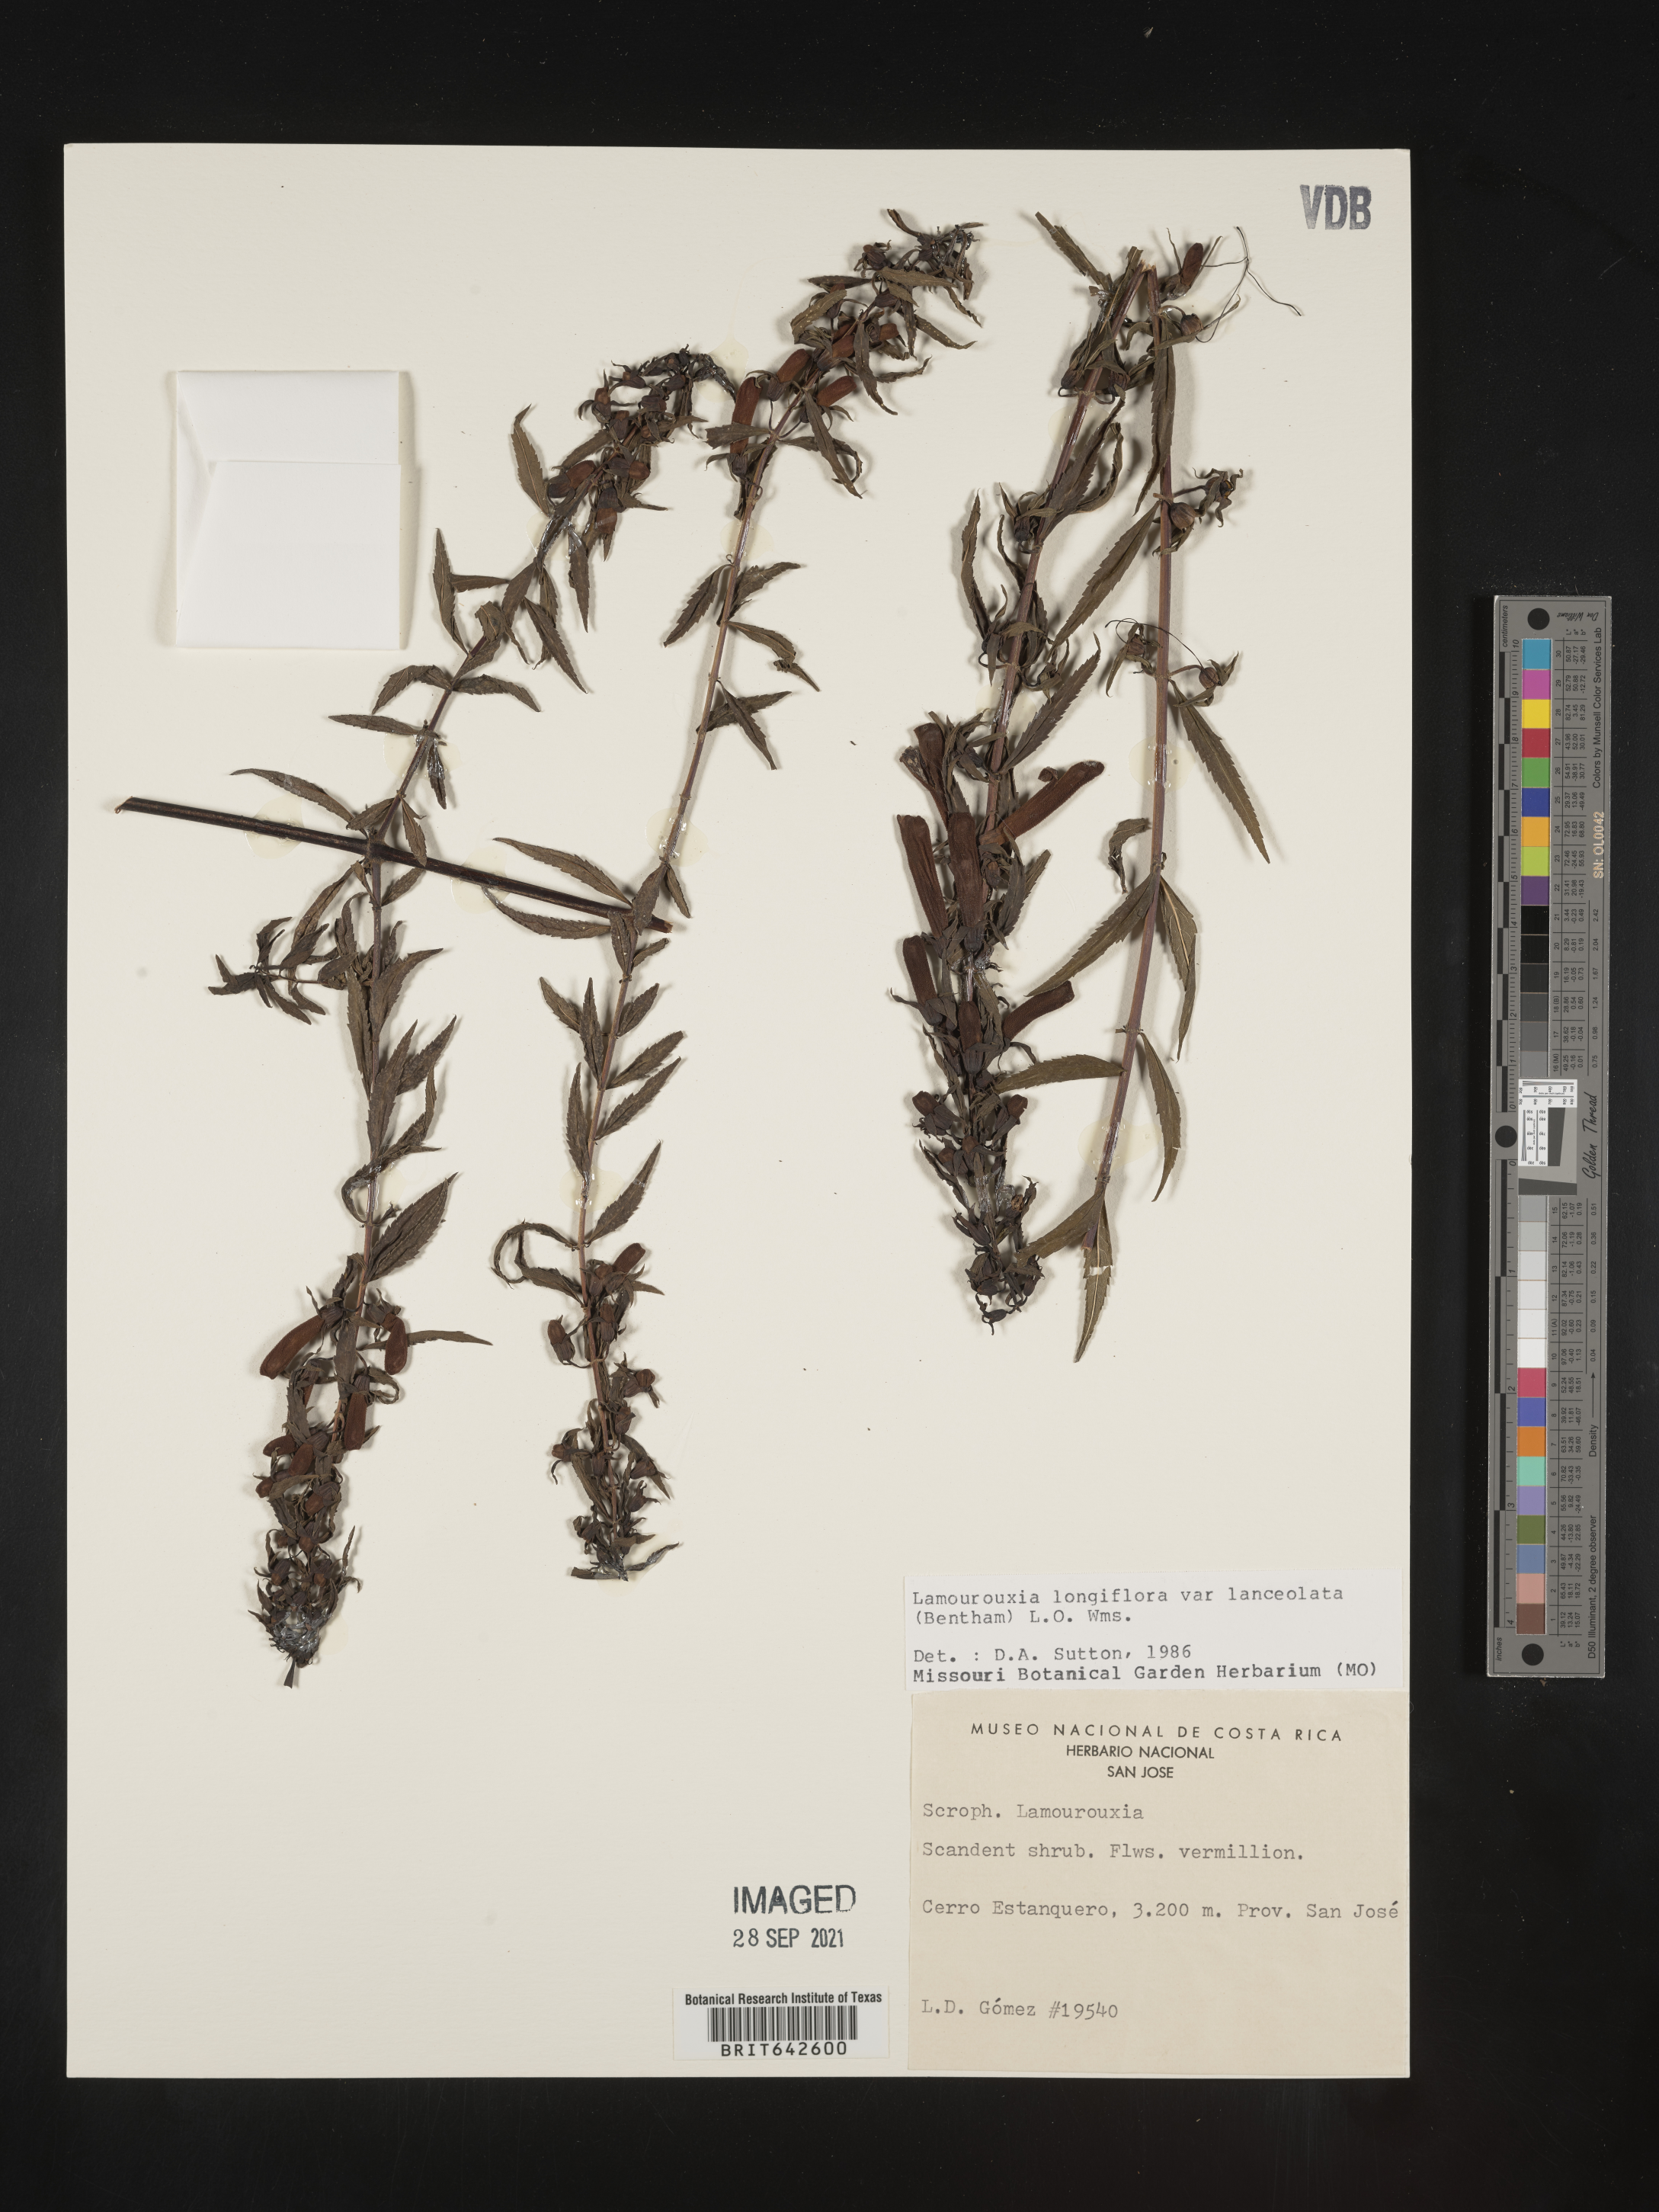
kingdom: Plantae
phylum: Tracheophyta
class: Magnoliopsida
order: Lamiales
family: Orobanchaceae
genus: Lamourouxia
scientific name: Lamourouxia
